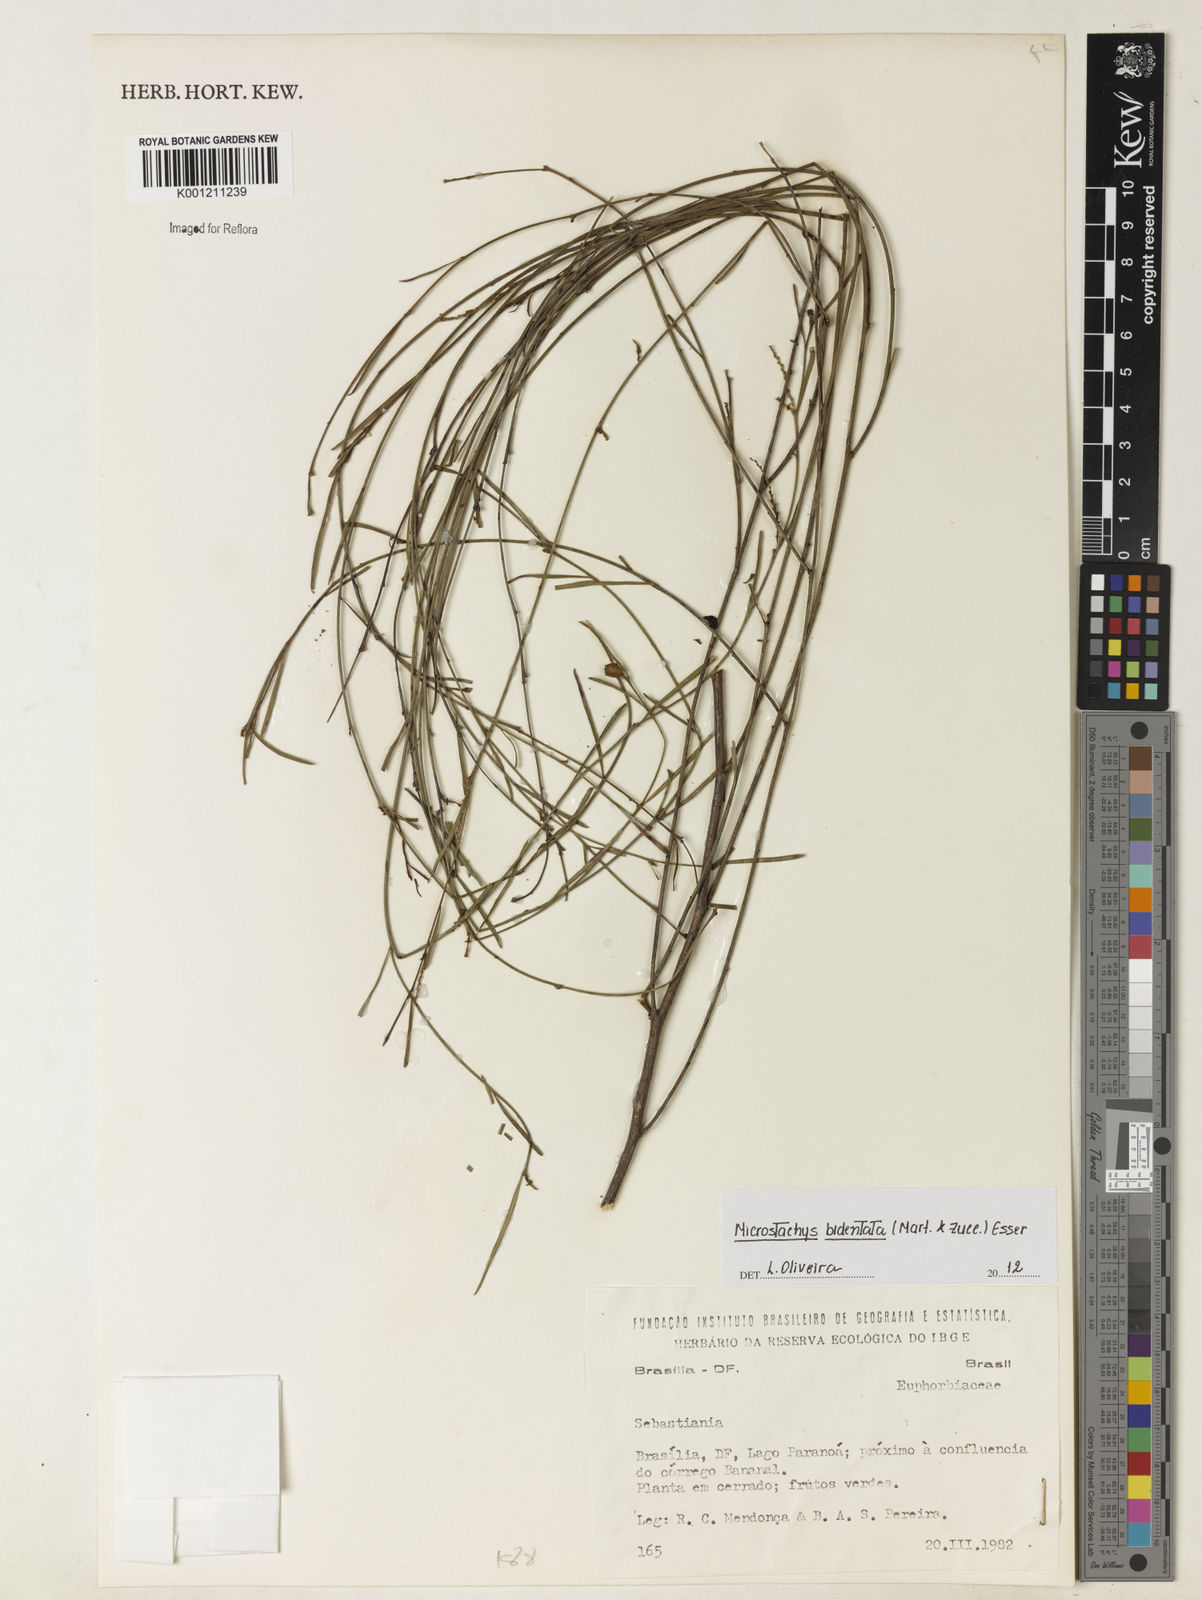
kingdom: Plantae
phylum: Tracheophyta
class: Magnoliopsida
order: Malpighiales
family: Euphorbiaceae
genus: Microstachys
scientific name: Microstachys bidentata
